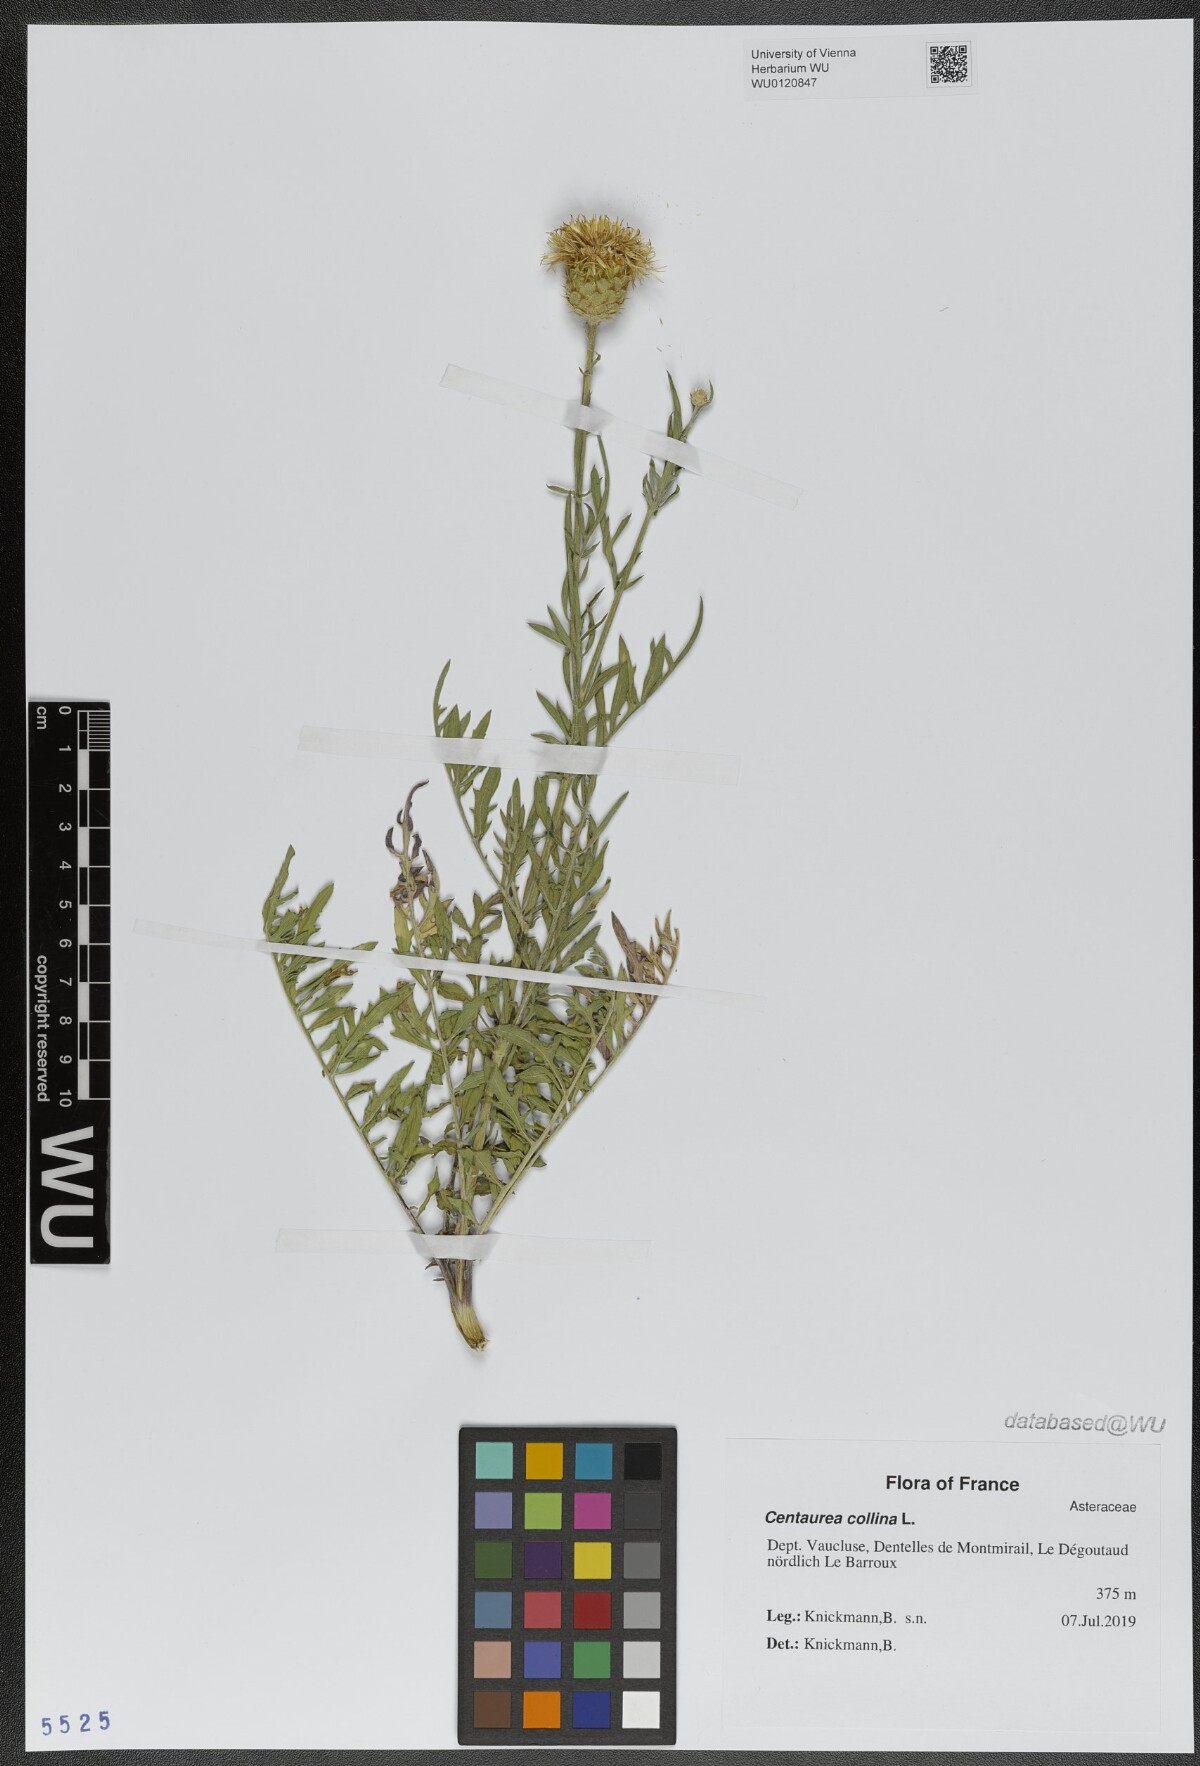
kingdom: Plantae
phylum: Tracheophyta
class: Magnoliopsida
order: Asterales
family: Asteraceae
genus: Centaurea
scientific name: Centaurea collina
